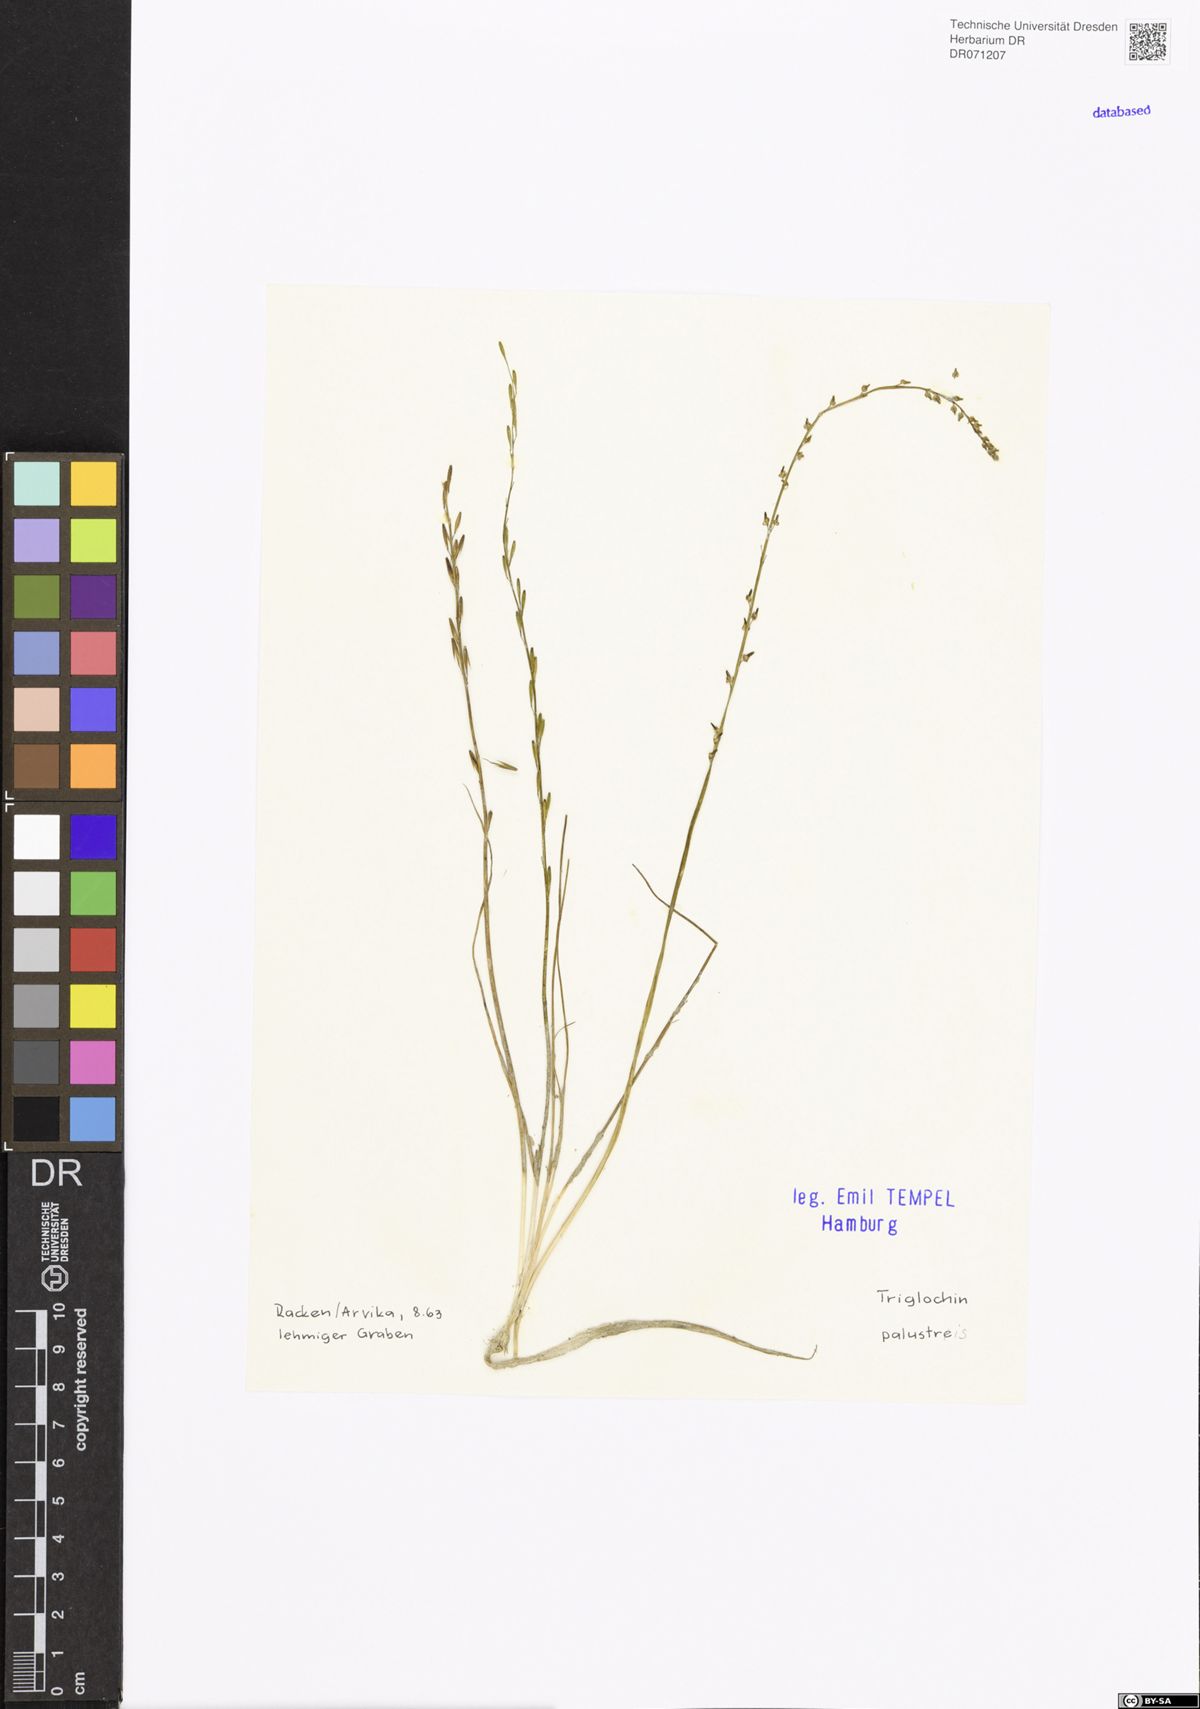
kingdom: Plantae
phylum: Tracheophyta
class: Liliopsida
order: Alismatales
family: Juncaginaceae
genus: Triglochin
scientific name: Triglochin palustris
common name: Marsh arrowgrass
